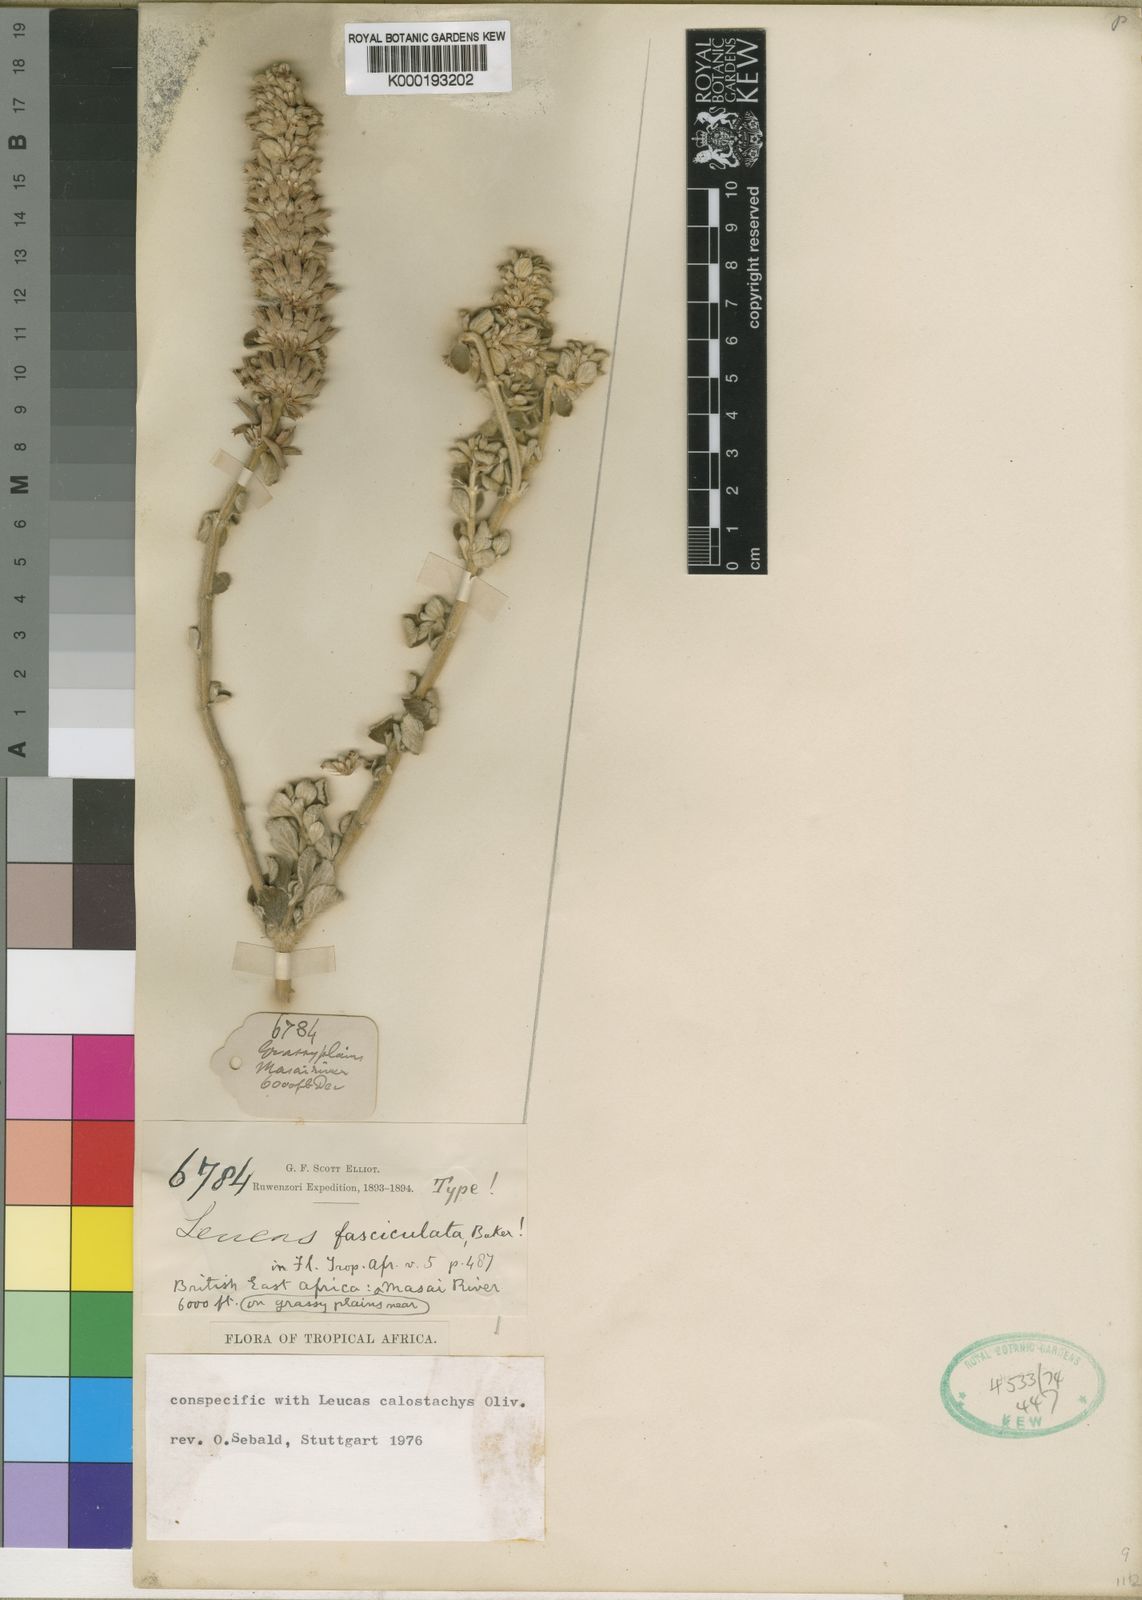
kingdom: Plantae
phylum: Tracheophyta
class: Magnoliopsida
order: Lamiales
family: Lamiaceae
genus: Leucas
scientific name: Leucas calostachys
